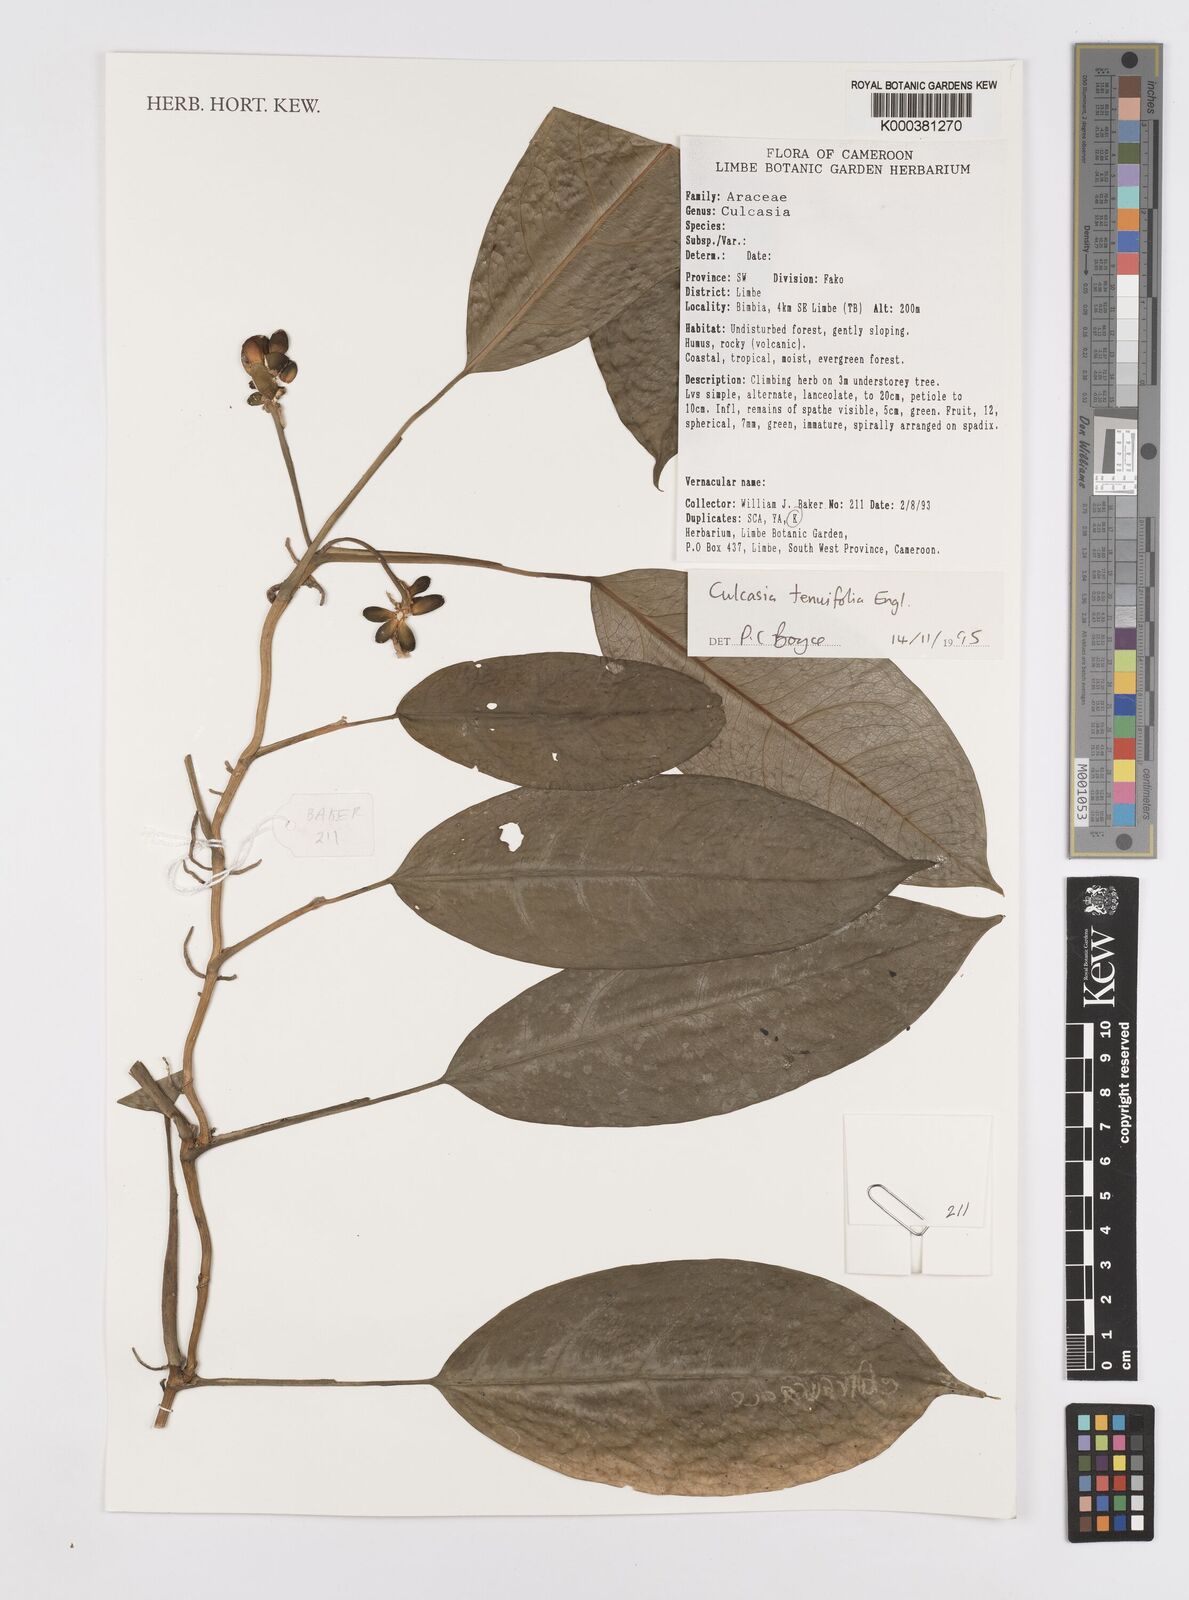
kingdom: Plantae
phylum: Tracheophyta
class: Liliopsida
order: Alismatales
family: Araceae
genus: Culcasia
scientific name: Culcasia tenuifolia
